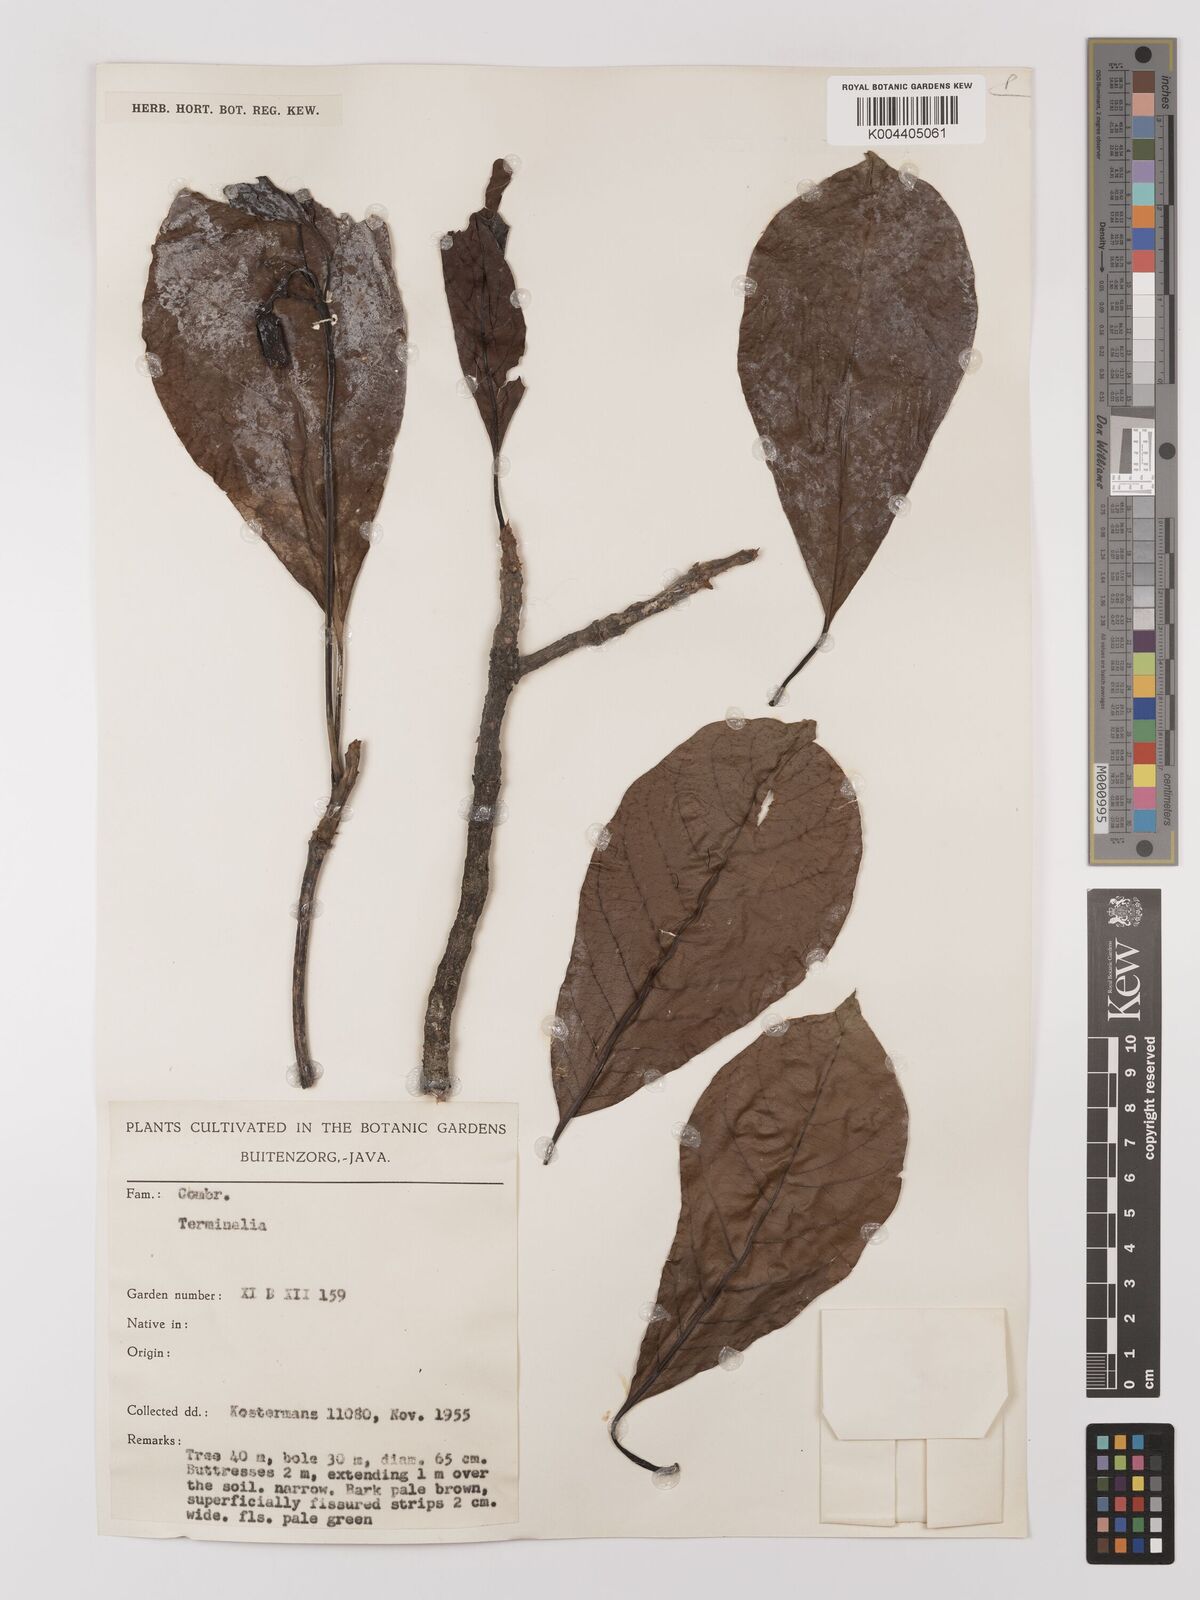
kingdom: Plantae
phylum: Tracheophyta
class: Magnoliopsida
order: Myrtales
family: Combretaceae
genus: Terminalia
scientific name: Terminalia bellirica
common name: Beleric myrobalan
